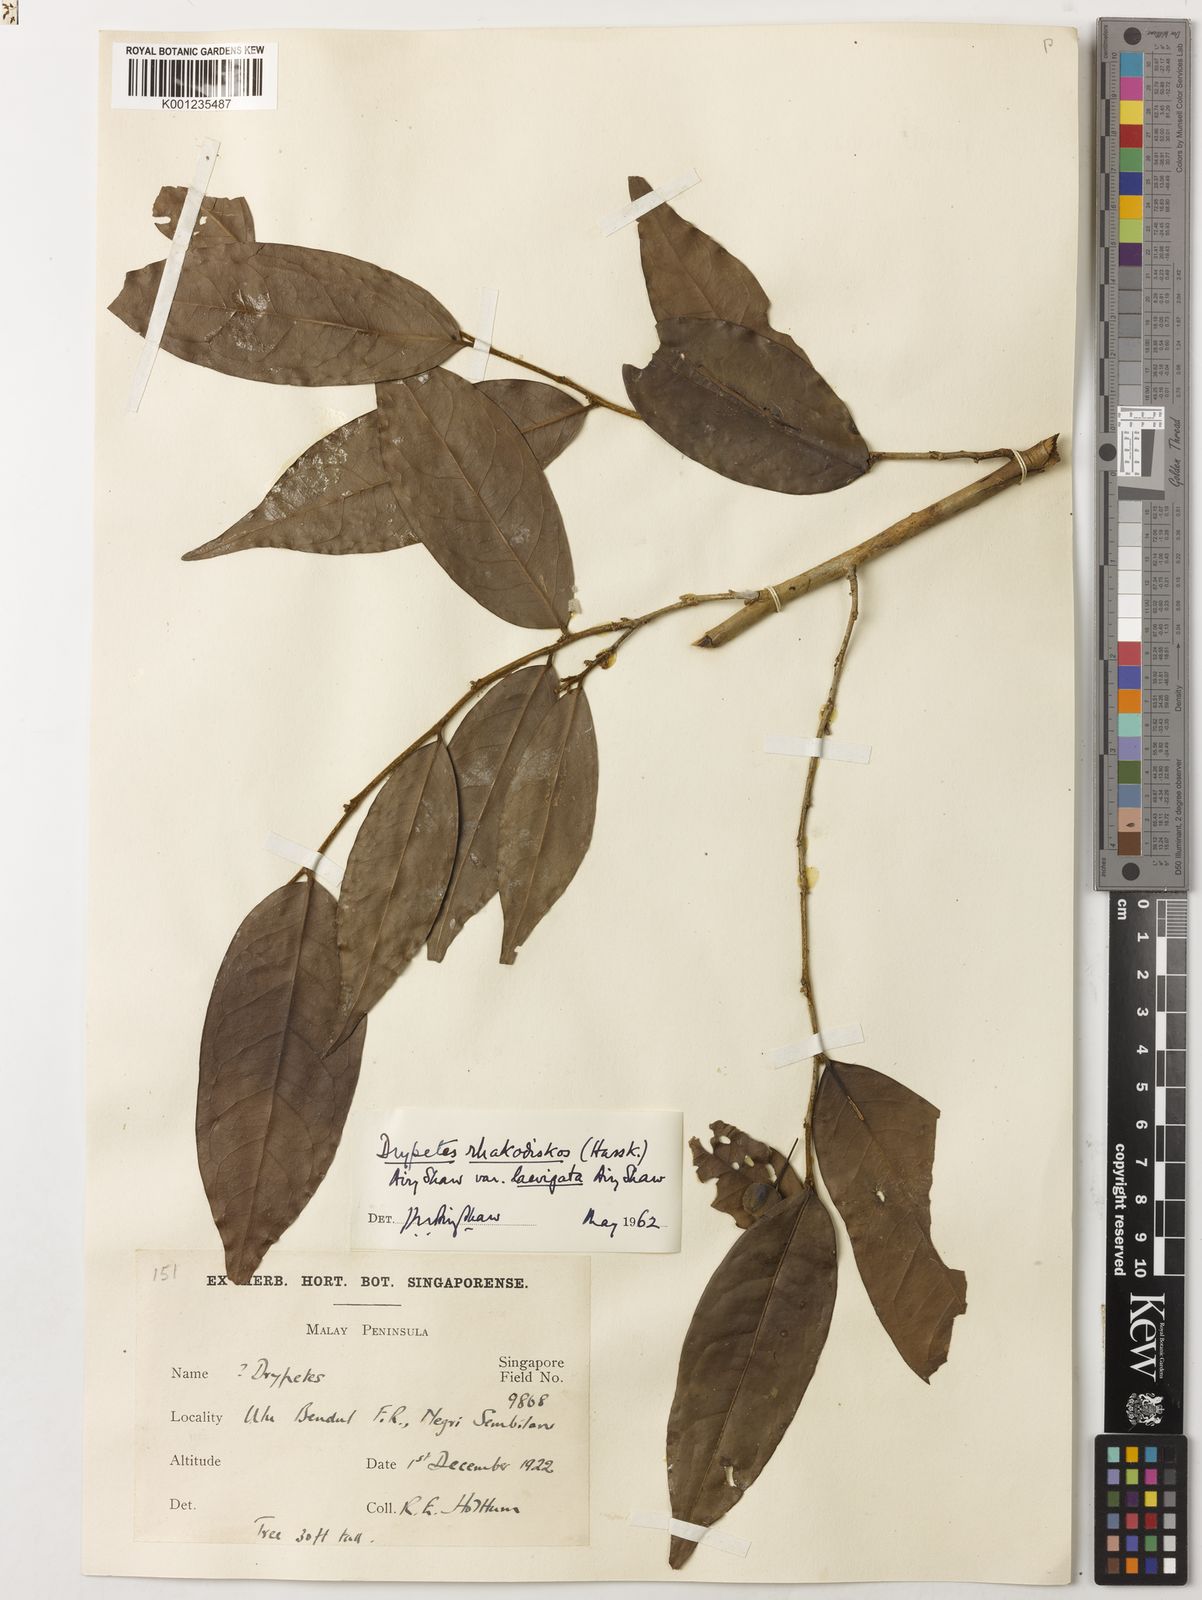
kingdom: Plantae
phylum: Tracheophyta
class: Magnoliopsida
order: Malpighiales
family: Putranjivaceae
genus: Drypetes
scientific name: Drypetes rhakodiskos
